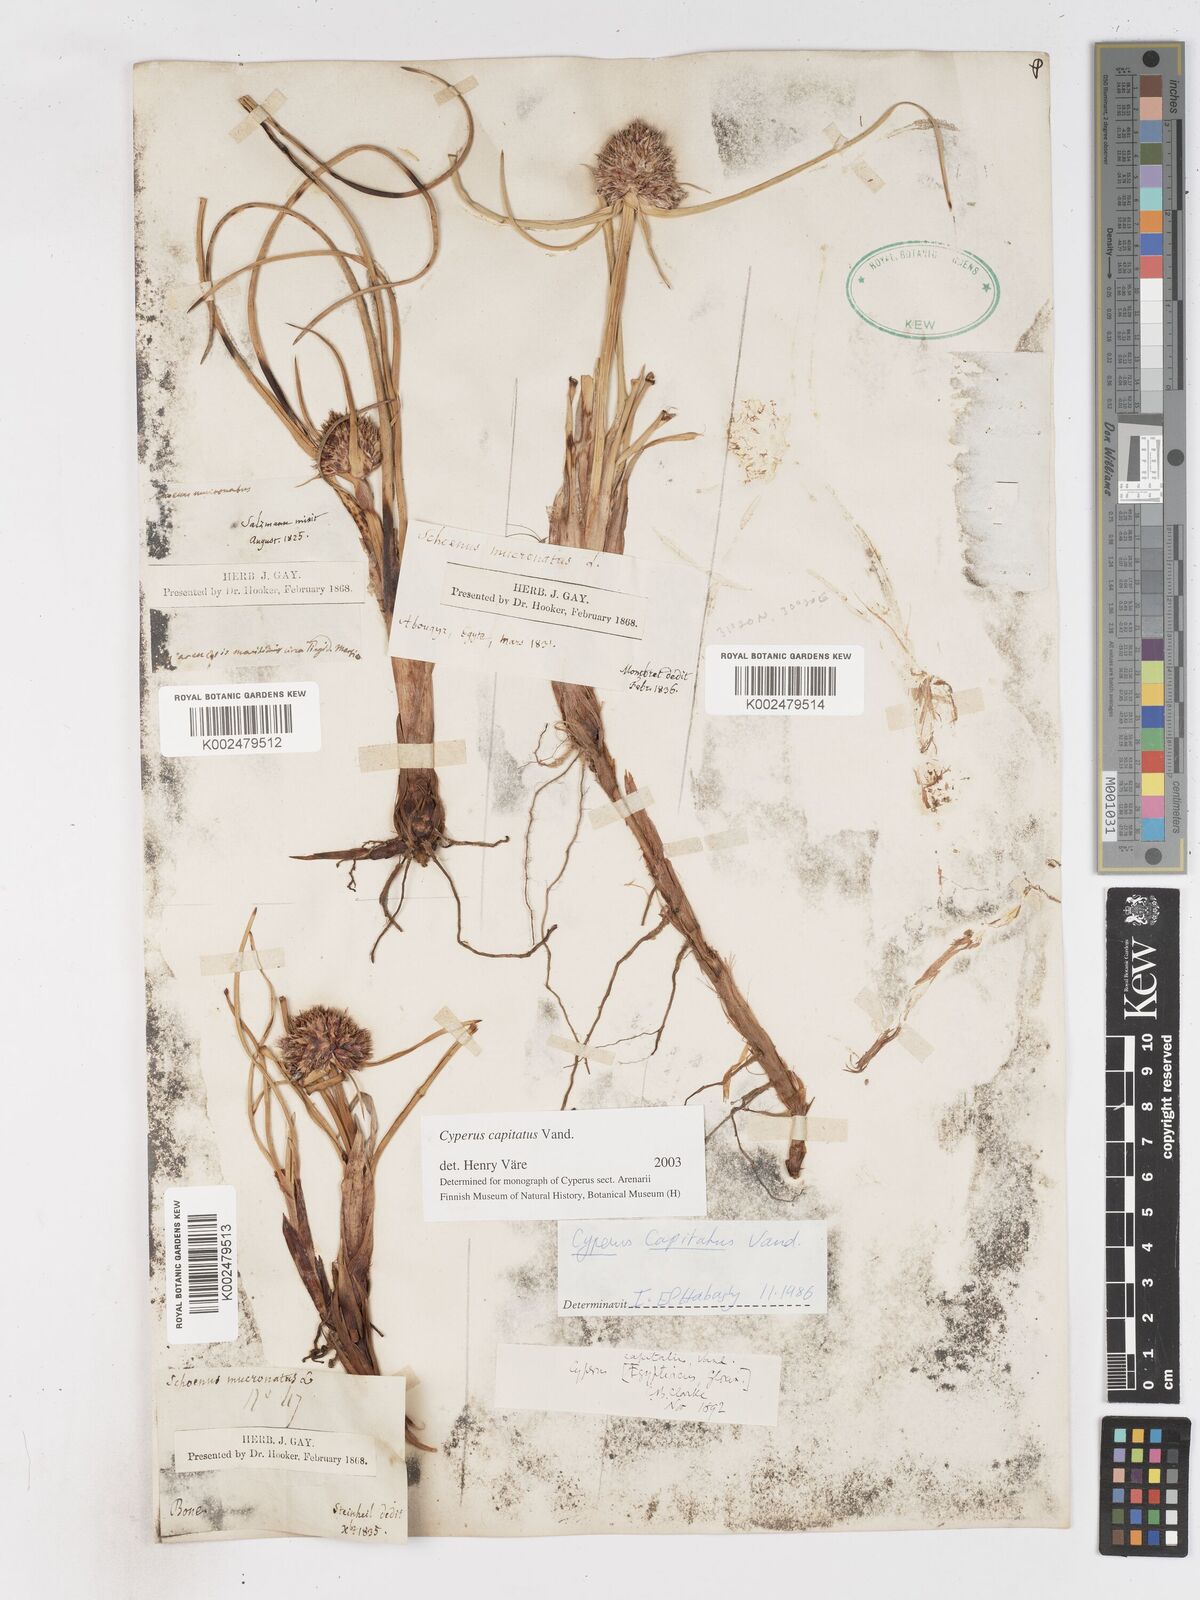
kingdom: Plantae
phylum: Tracheophyta
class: Liliopsida
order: Poales
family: Cyperaceae
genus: Cyperus
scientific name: Cyperus capitatus
